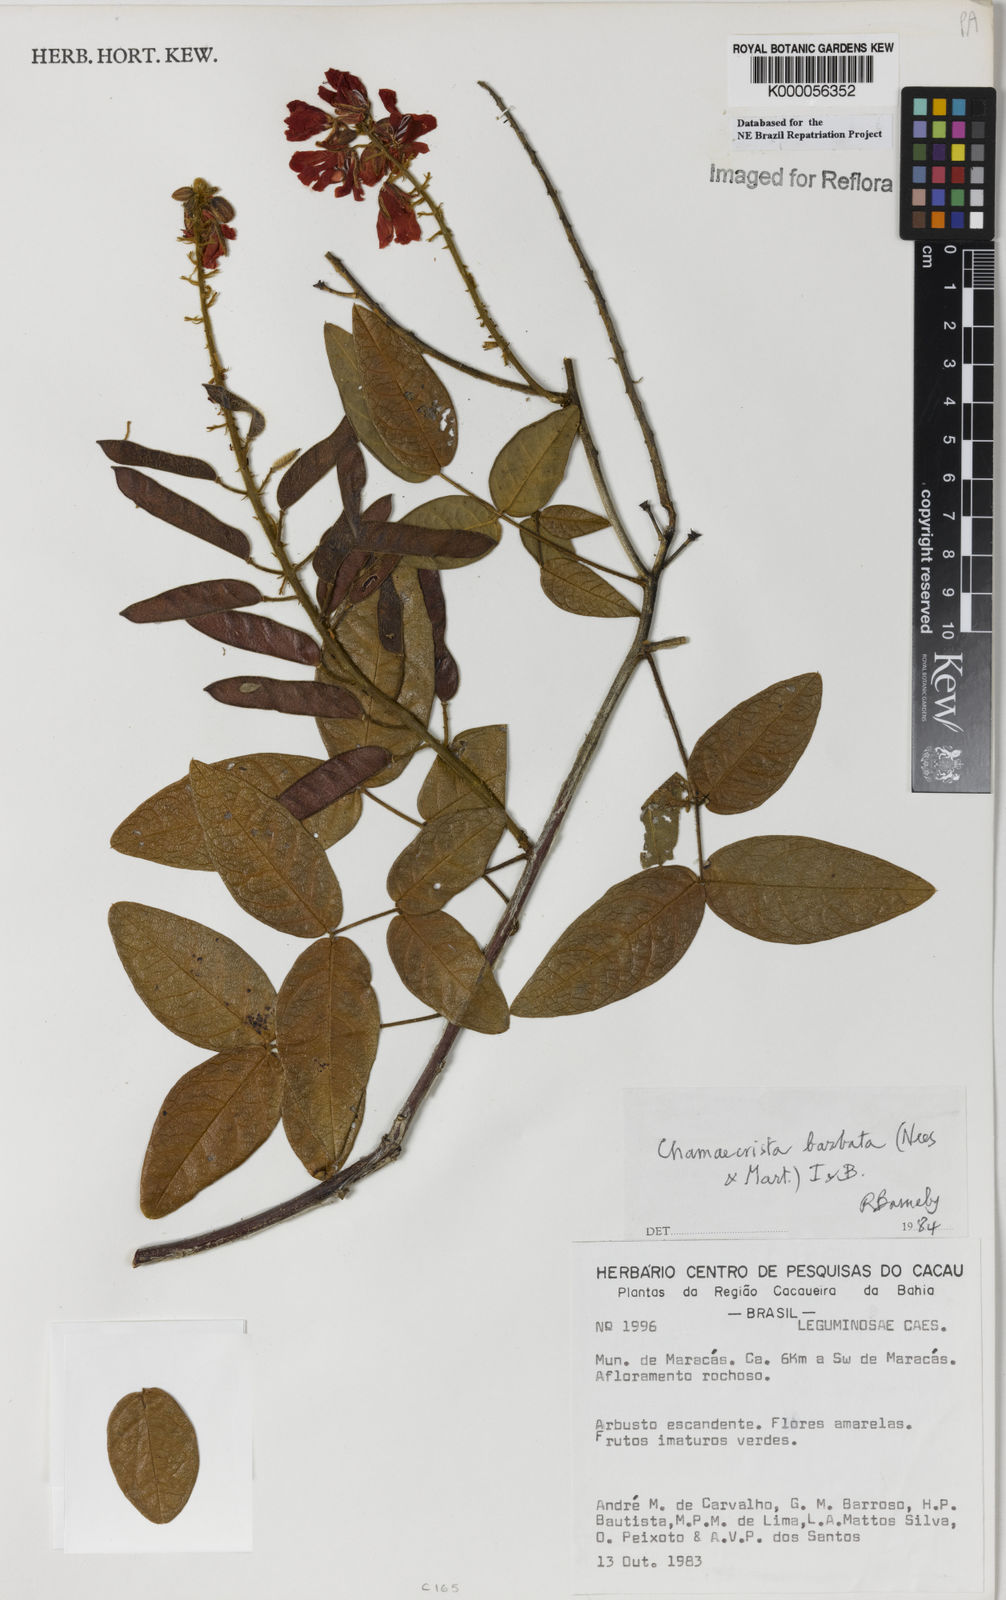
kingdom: Plantae
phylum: Tracheophyta
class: Magnoliopsida
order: Fabales
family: Fabaceae
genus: Chamaecrista
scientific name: Chamaecrista barbata
